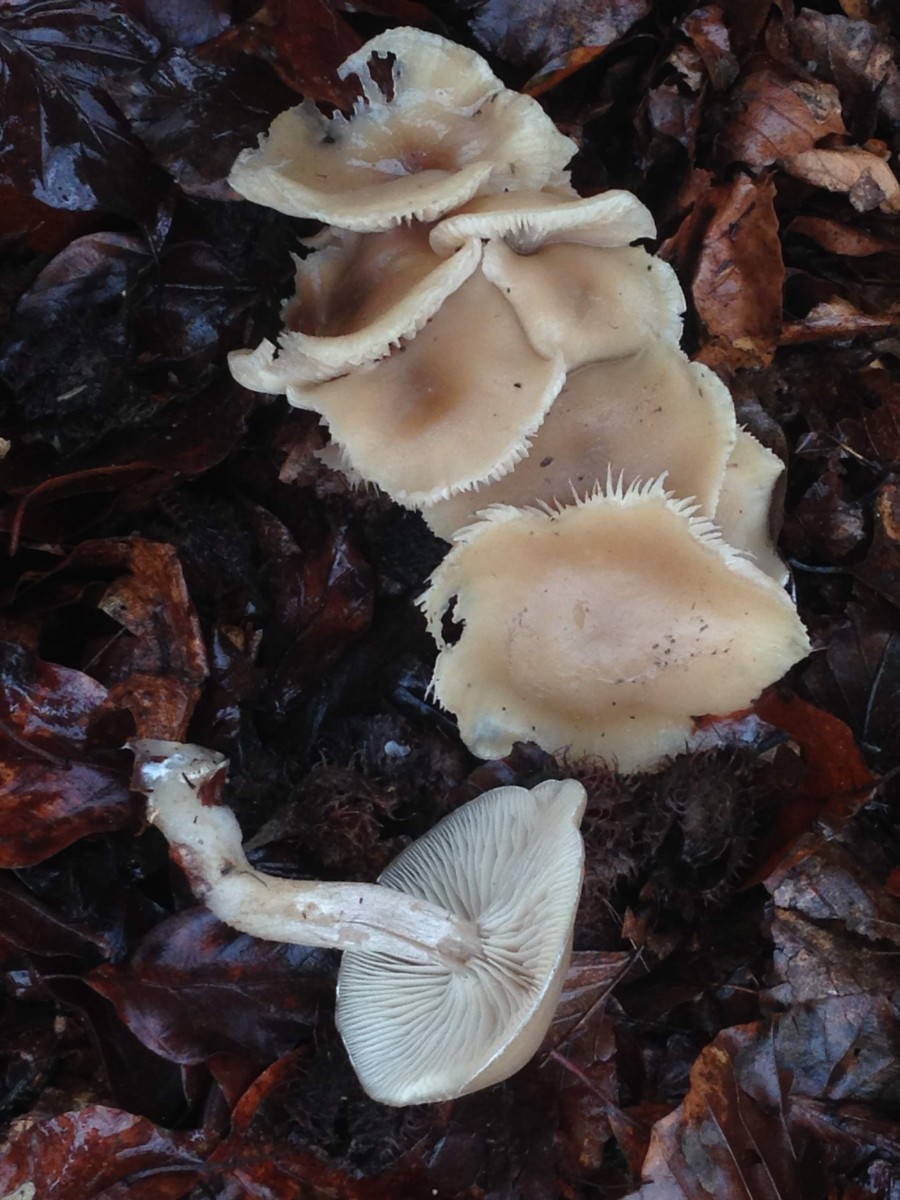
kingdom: Fungi
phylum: Basidiomycota
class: Agaricomycetes
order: Agaricales
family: Tricholomataceae
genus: Clitocybe
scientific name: Clitocybe fragrans
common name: vellugtende tragthat
